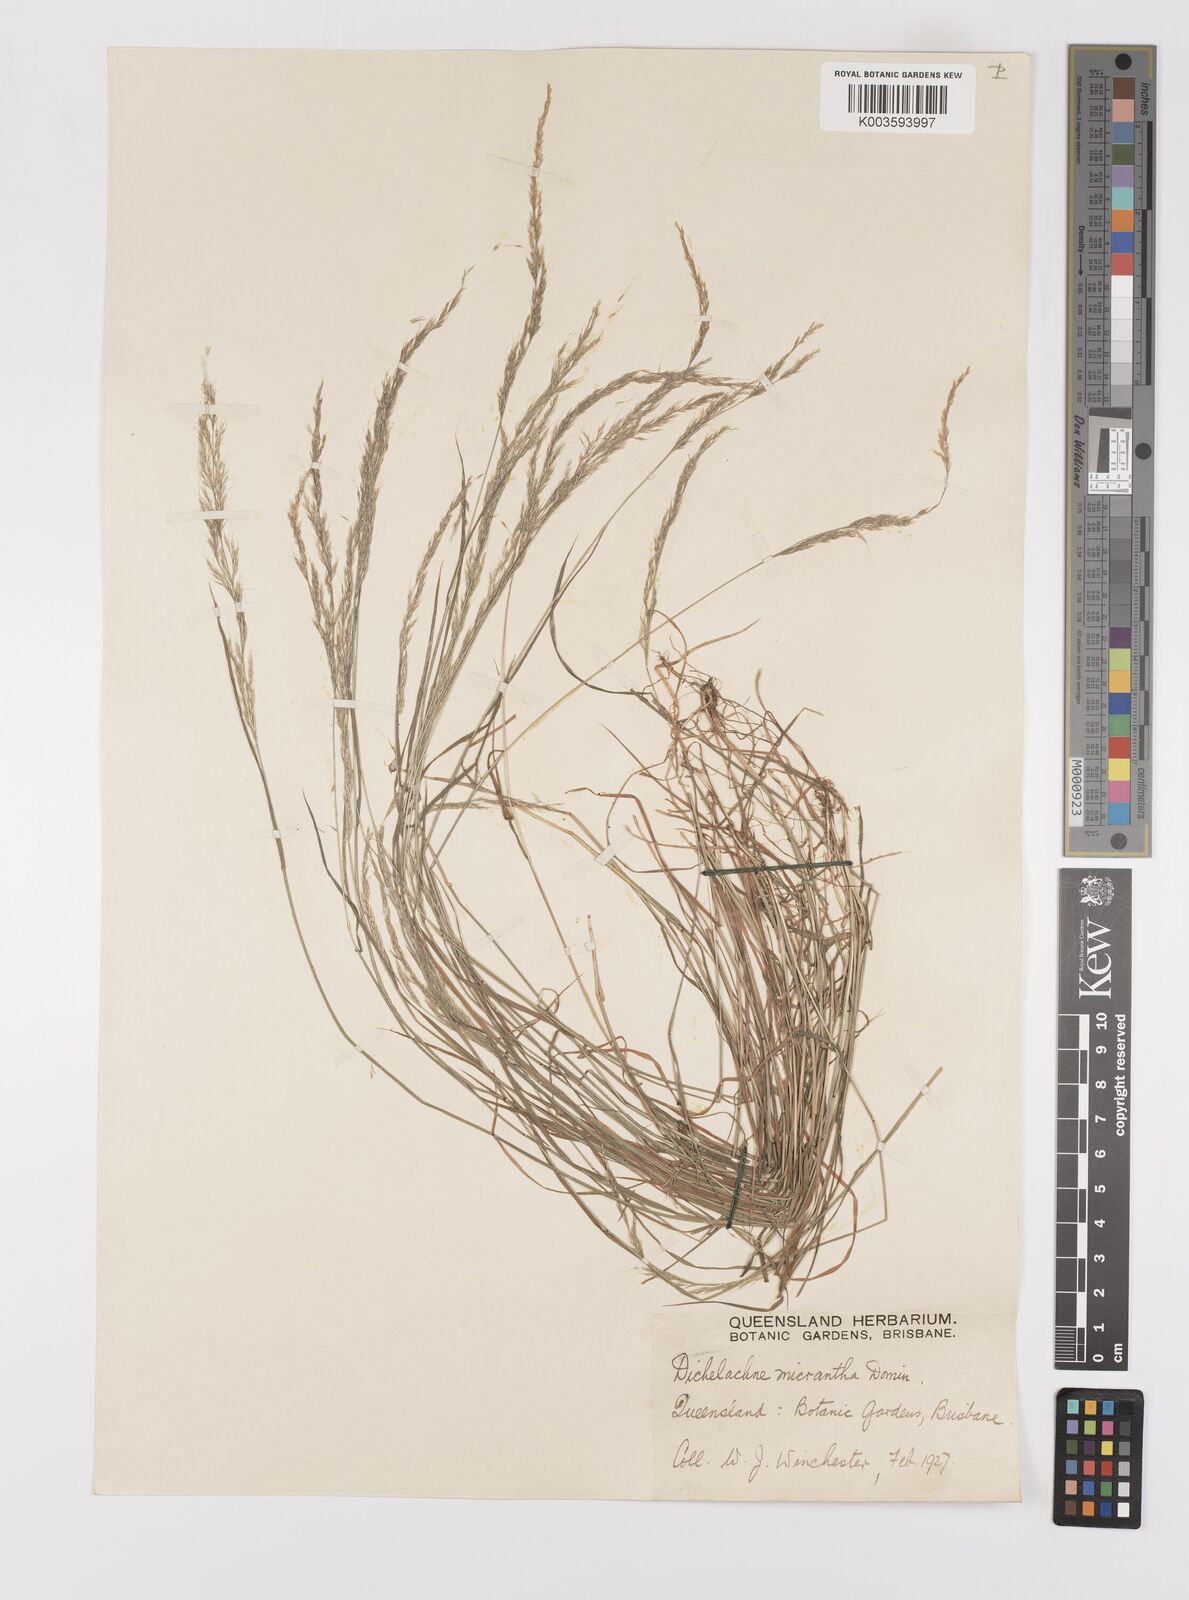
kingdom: Plantae
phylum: Tracheophyta
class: Liliopsida
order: Poales
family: Poaceae
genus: Dichelachne
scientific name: Dichelachne micrantha
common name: Plumegrass
